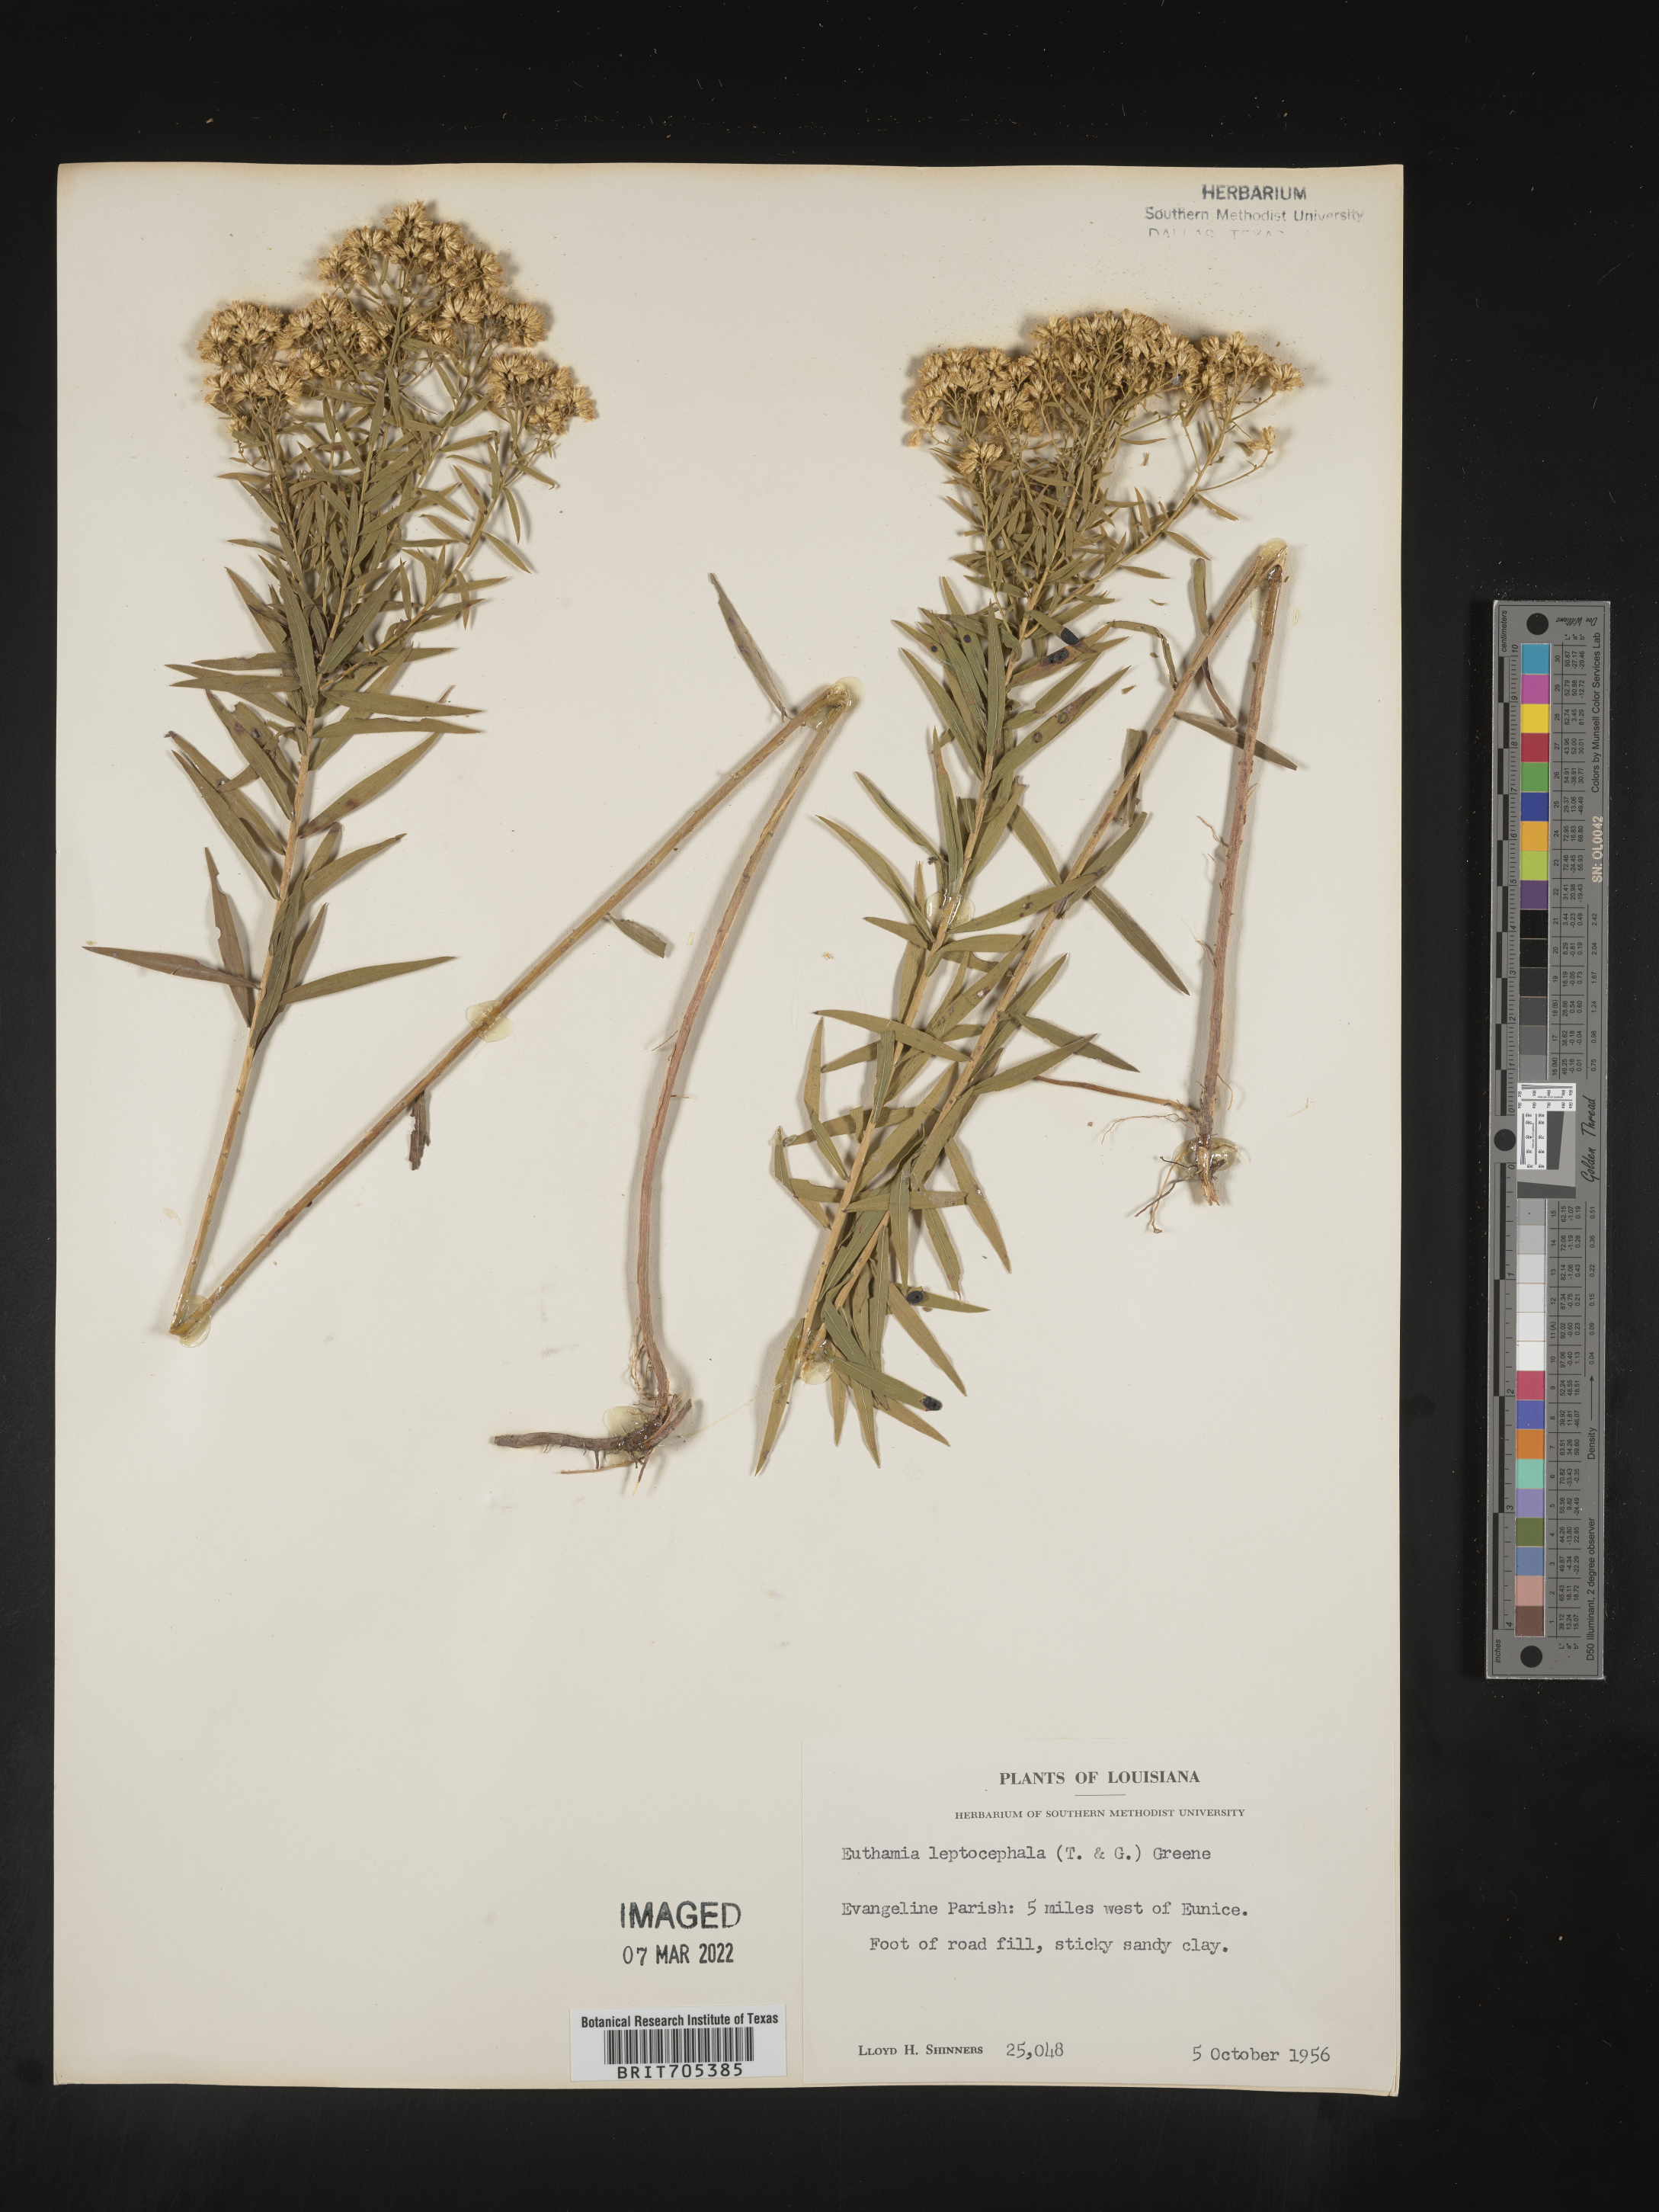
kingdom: Plantae
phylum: Tracheophyta
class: Magnoliopsida
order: Asterales
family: Asteraceae
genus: Euthamia
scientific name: Euthamia leptocephala
